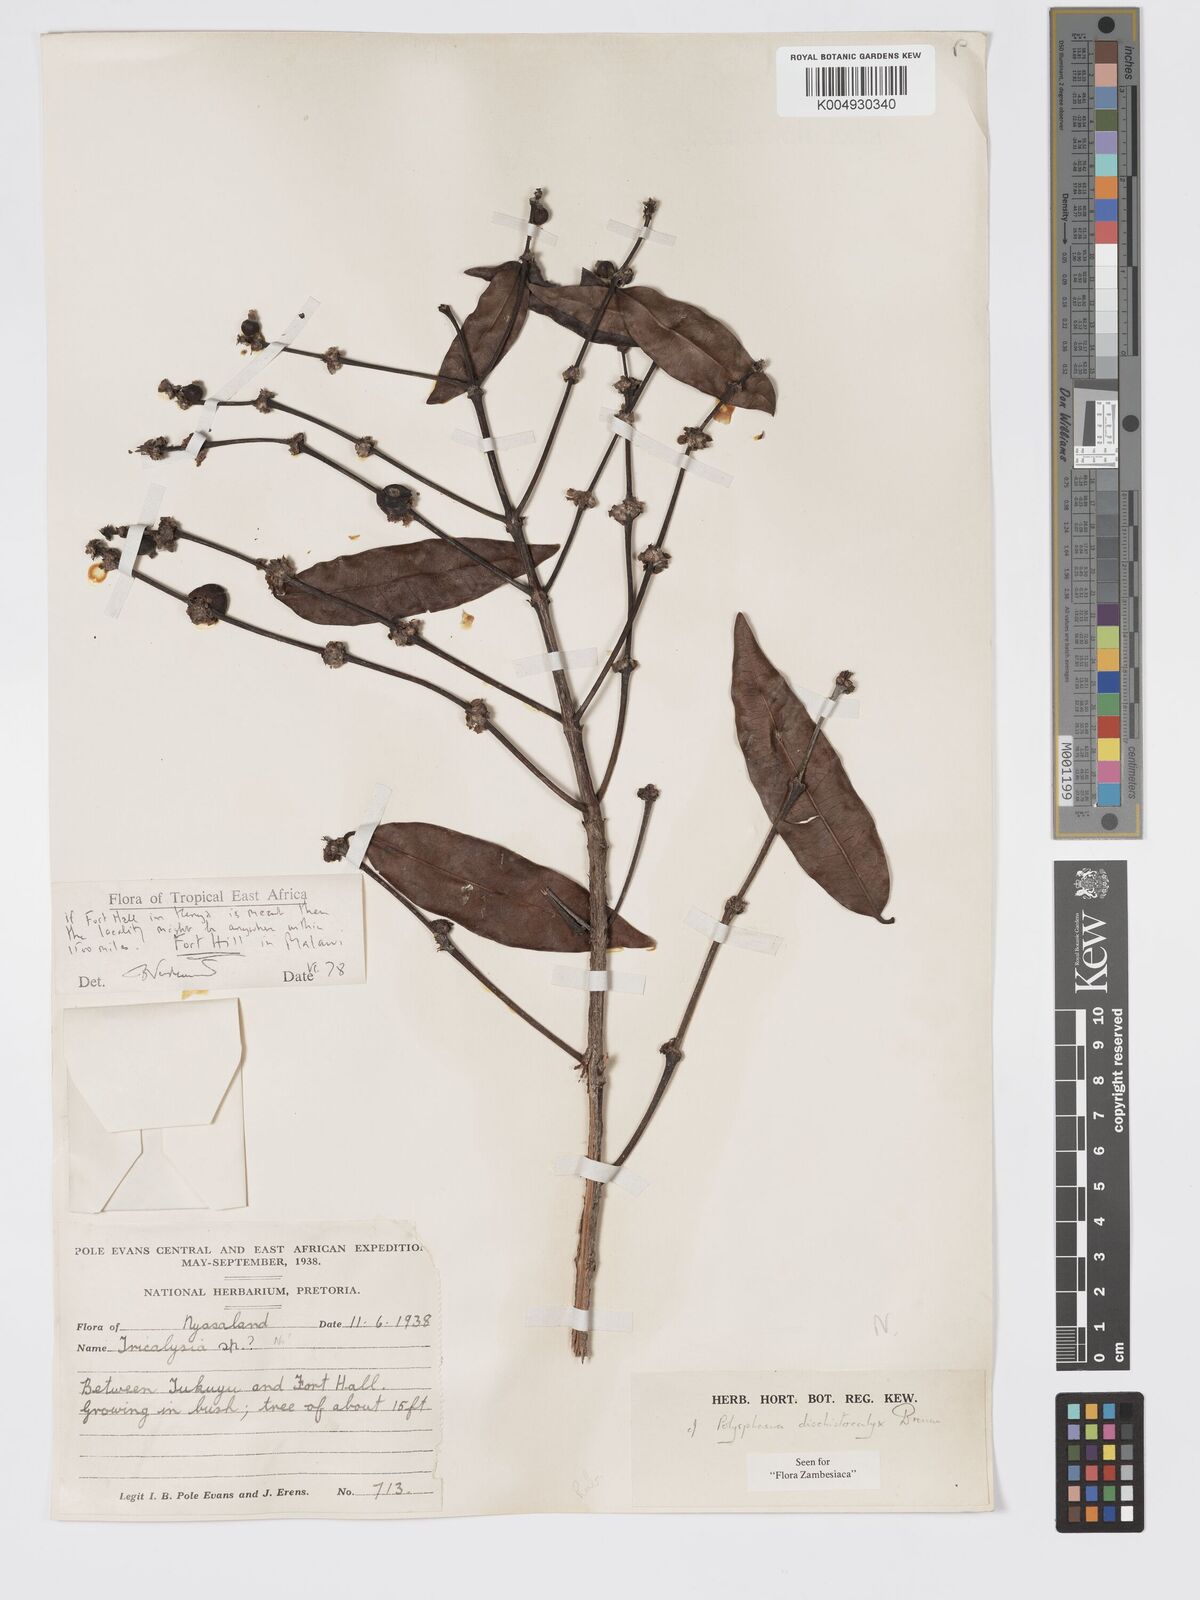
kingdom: Plantae
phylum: Tracheophyta
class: Magnoliopsida
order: Gentianales
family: Rubiaceae
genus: Polysphaeria
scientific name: Polysphaeria dischistocalyx
